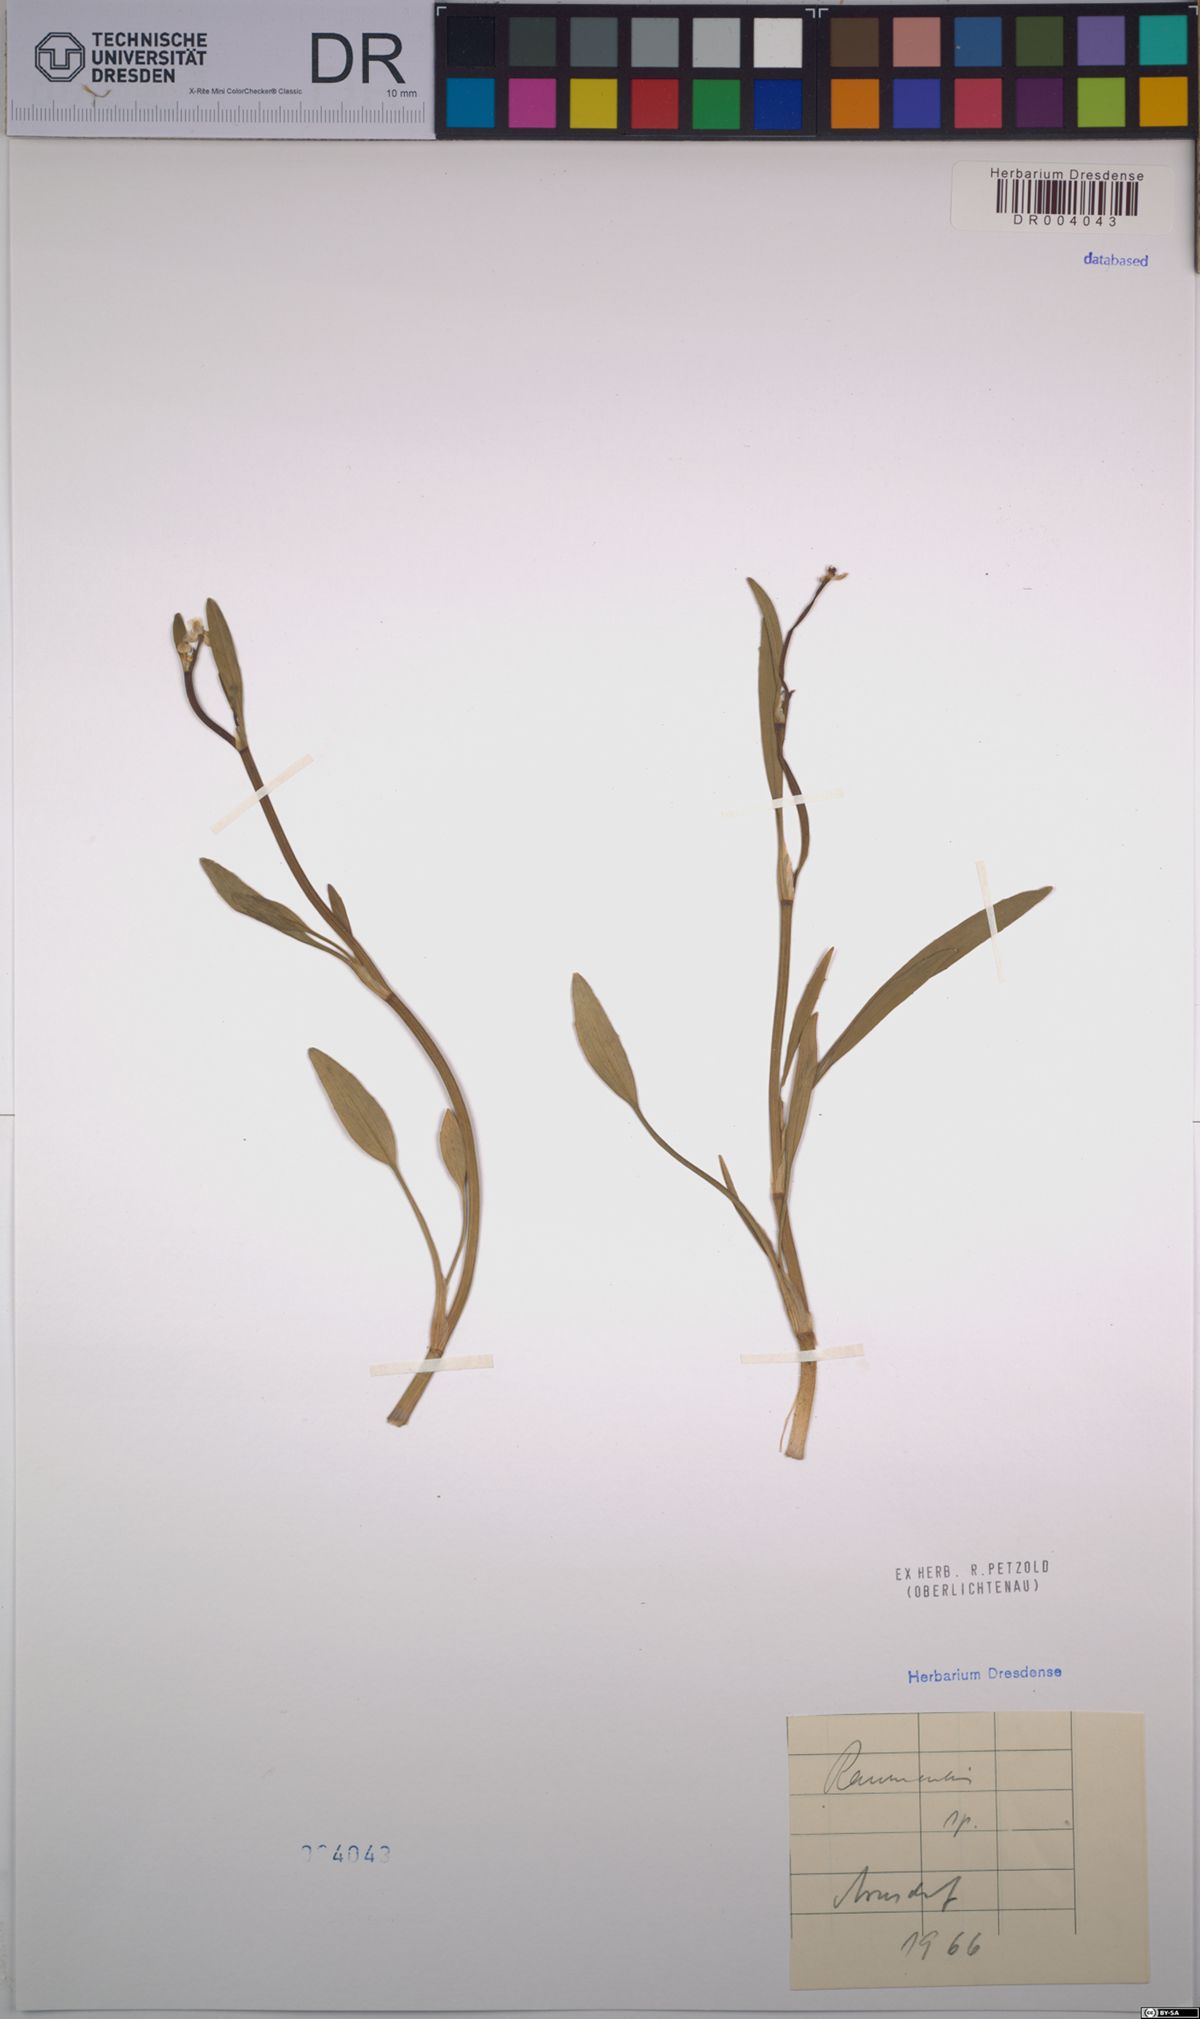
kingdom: Plantae
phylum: Tracheophyta
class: Magnoliopsida
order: Ranunculales
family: Ranunculaceae
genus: Ranunculus
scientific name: Ranunculus flammula
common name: Lesser spearwort
